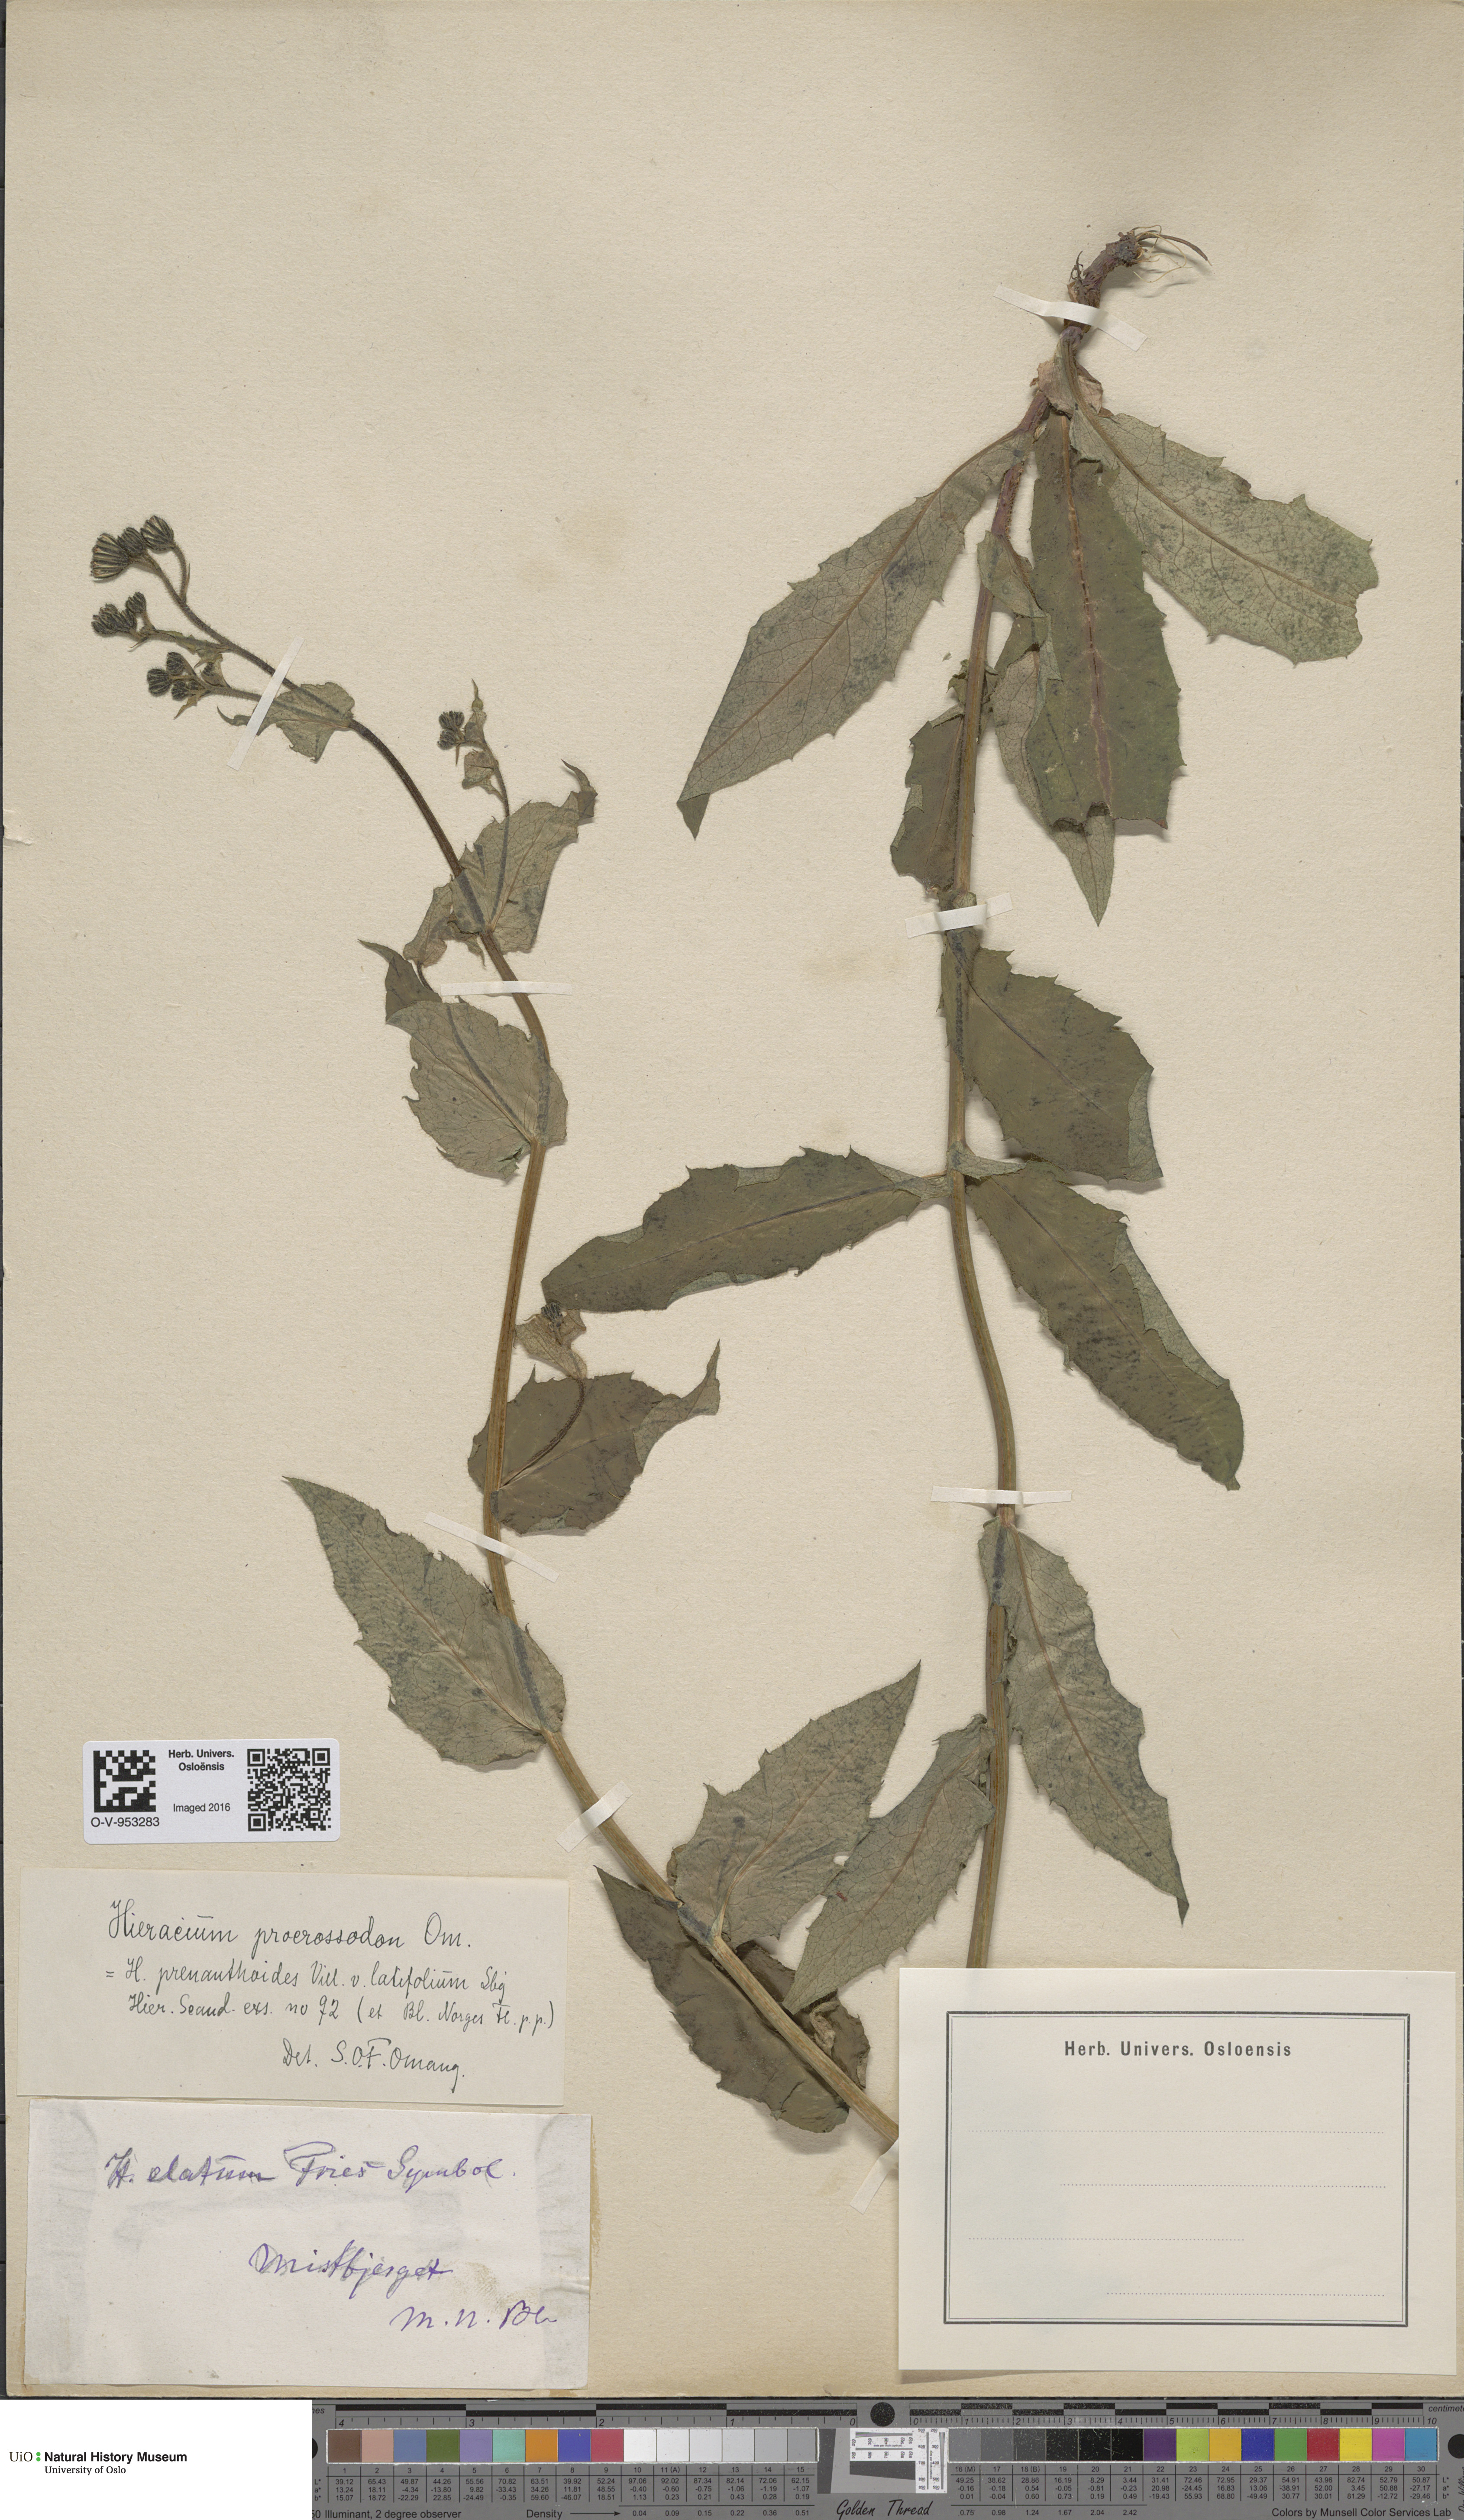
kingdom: Plantae
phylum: Tracheophyta
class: Magnoliopsida
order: Asterales
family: Asteraceae
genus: Hieracium
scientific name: Hieracium prenanthoides
